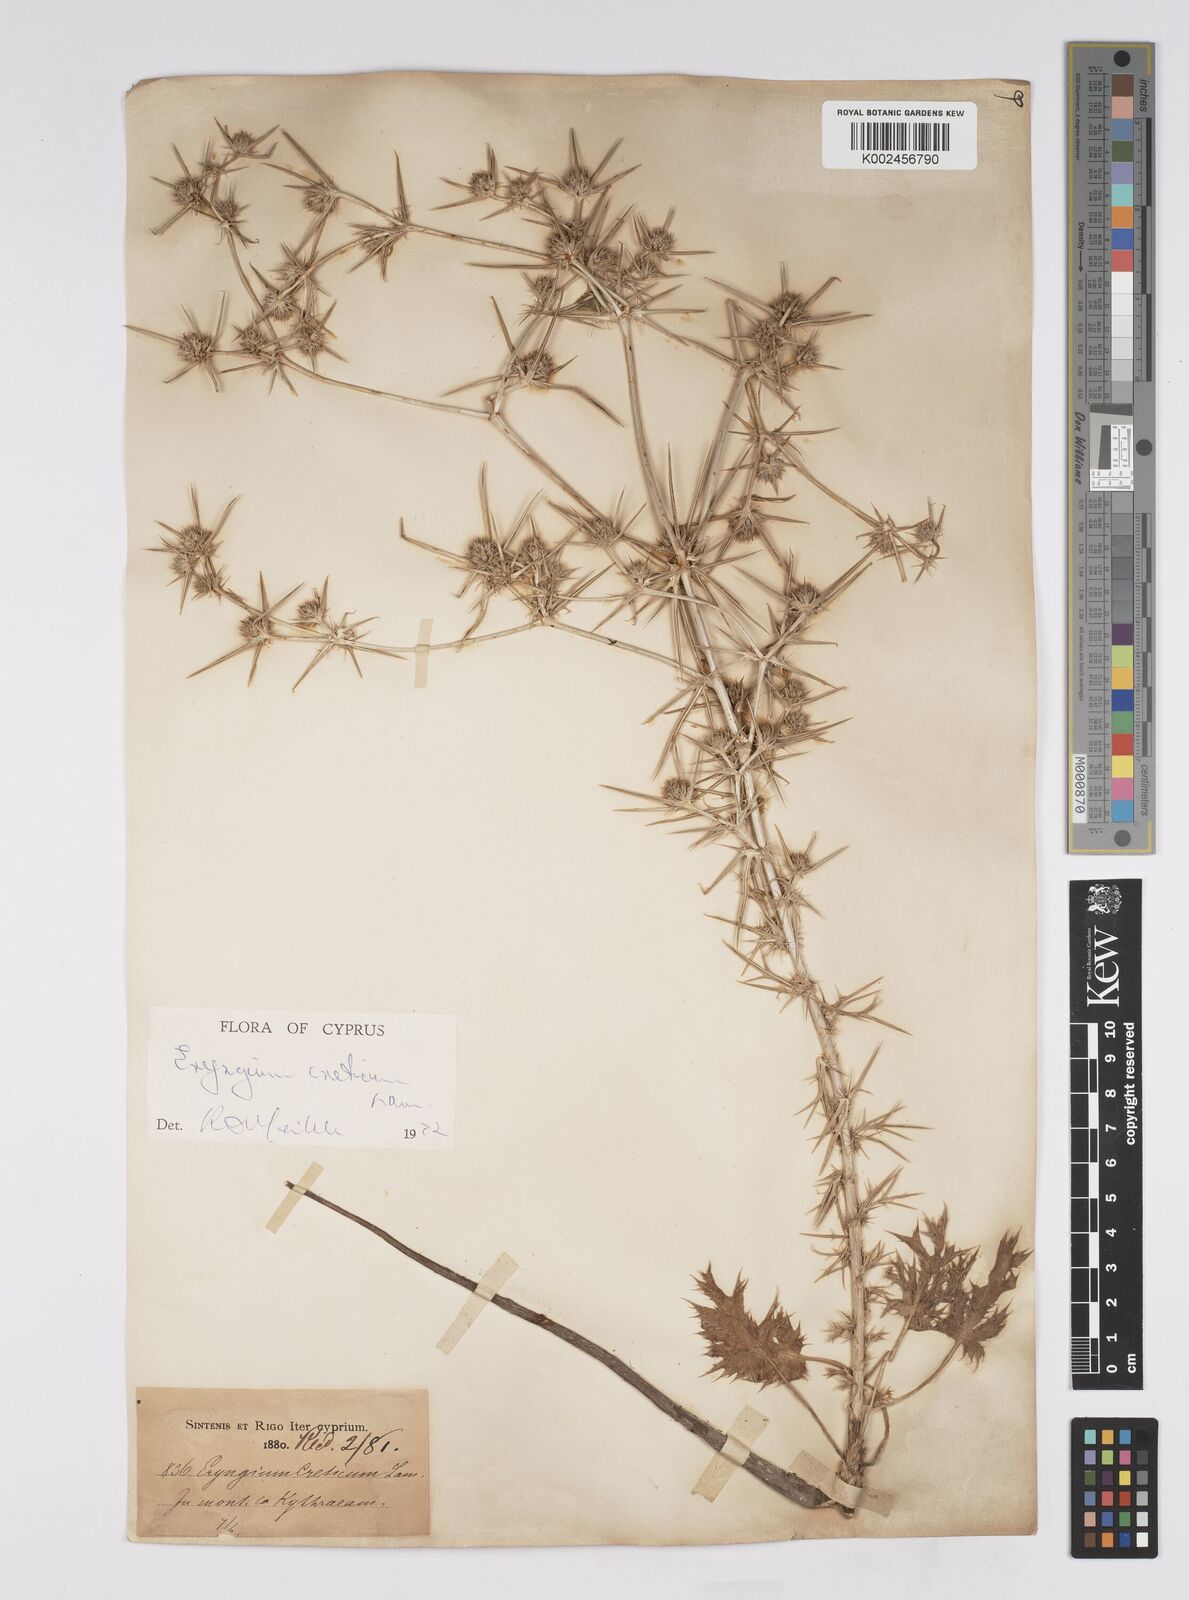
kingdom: Plantae
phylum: Tracheophyta
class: Magnoliopsida
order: Apiales
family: Apiaceae
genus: Eryngium
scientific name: Eryngium creticum
